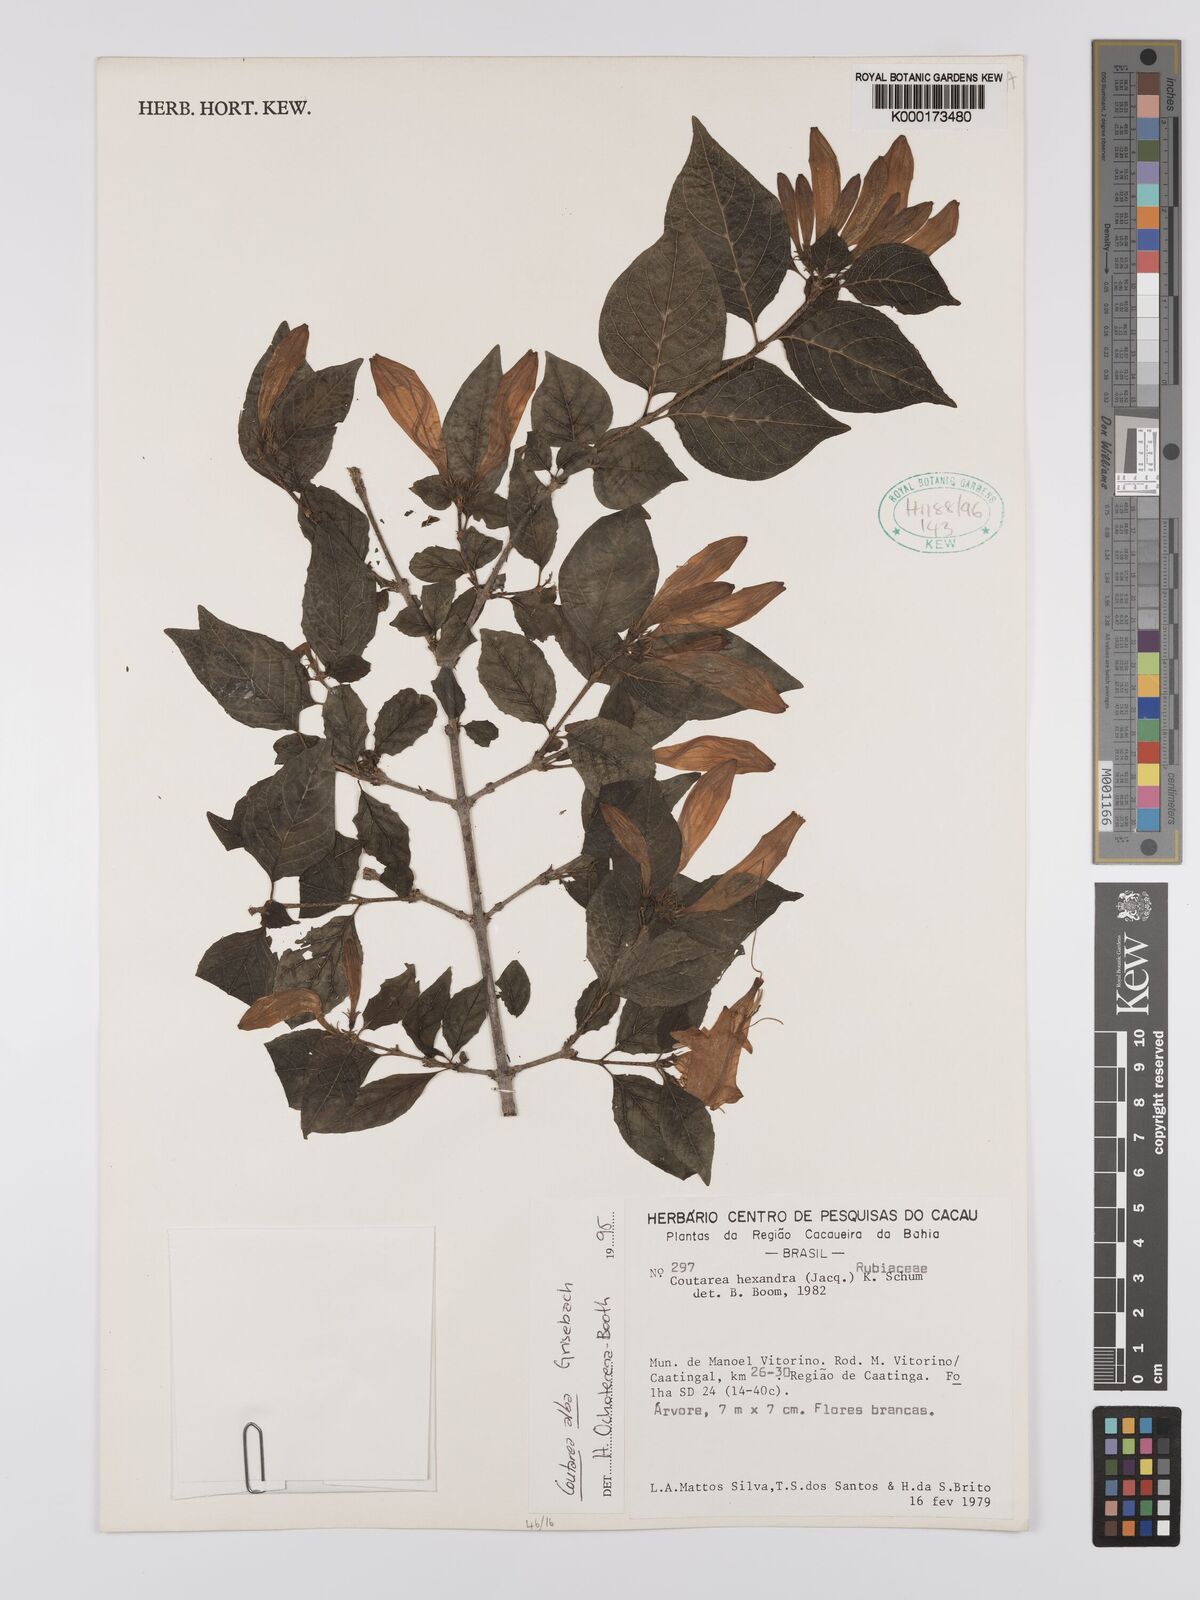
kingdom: Plantae
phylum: Tracheophyta
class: Magnoliopsida
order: Gentianales
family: Rubiaceae
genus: Coutarea
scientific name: Coutarea alba
